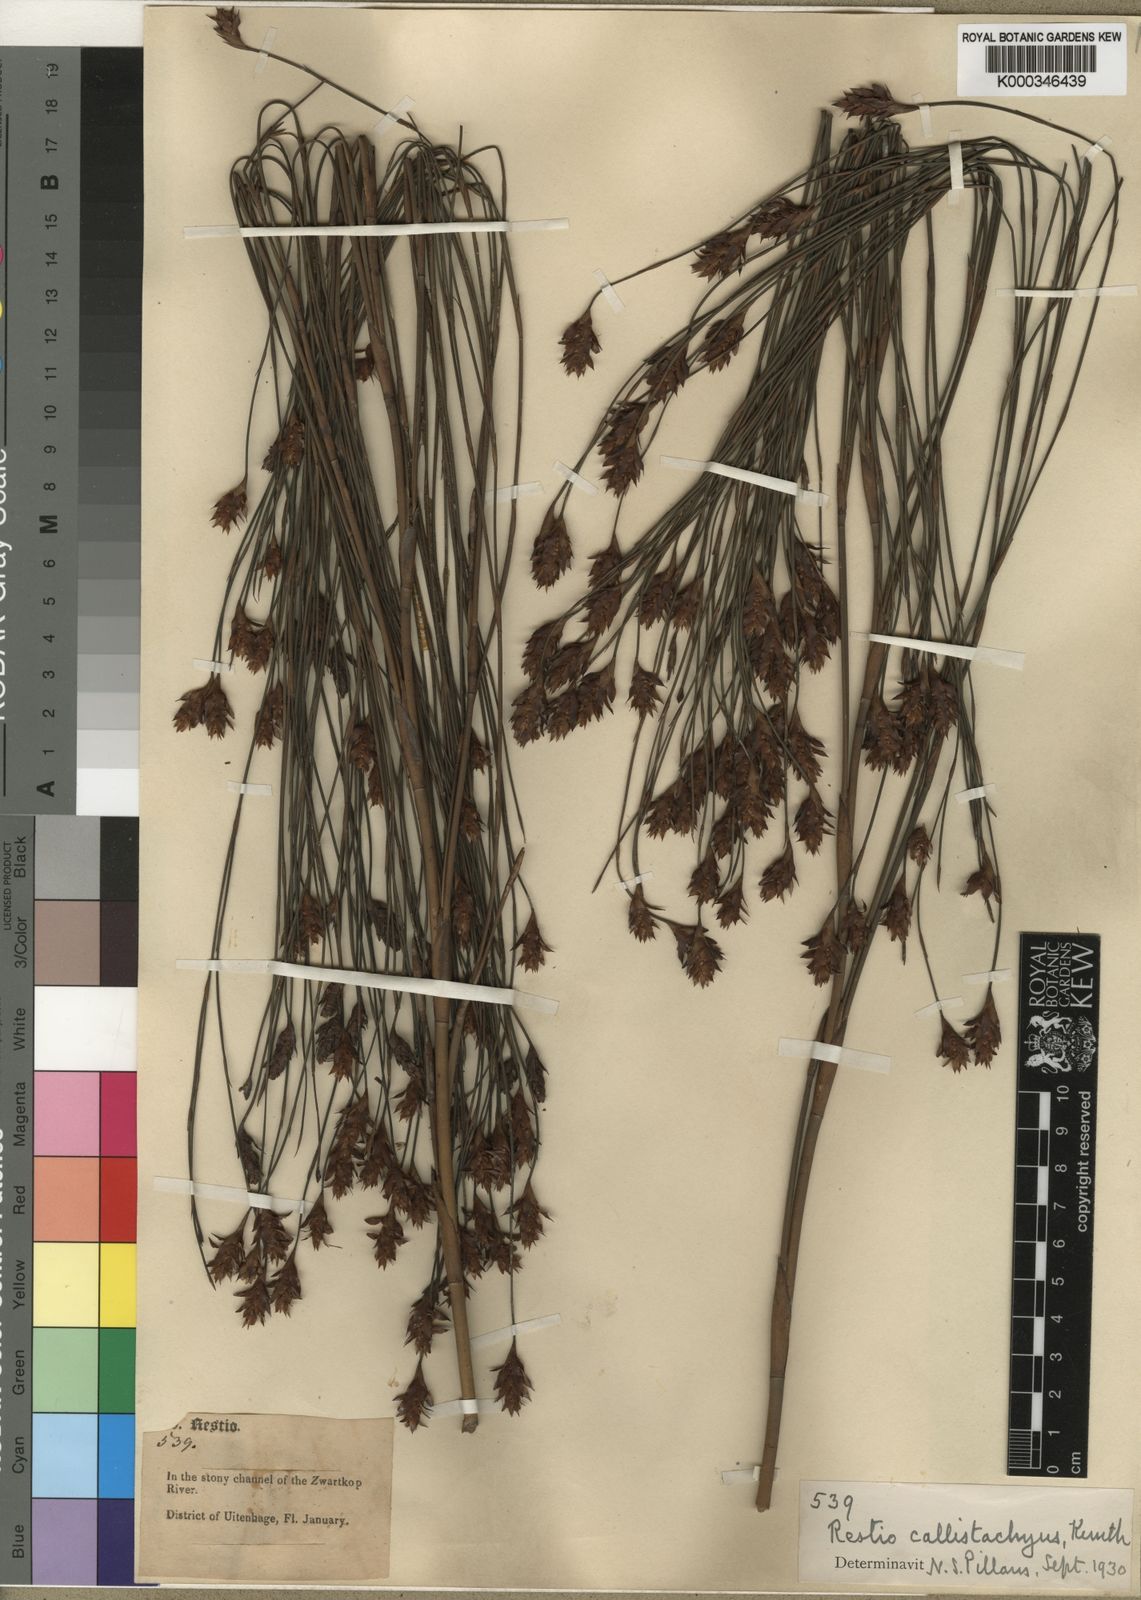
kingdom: Plantae
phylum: Tracheophyta
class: Liliopsida
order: Poales
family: Restionaceae
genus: Platycaulos
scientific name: Platycaulos callistachyus
